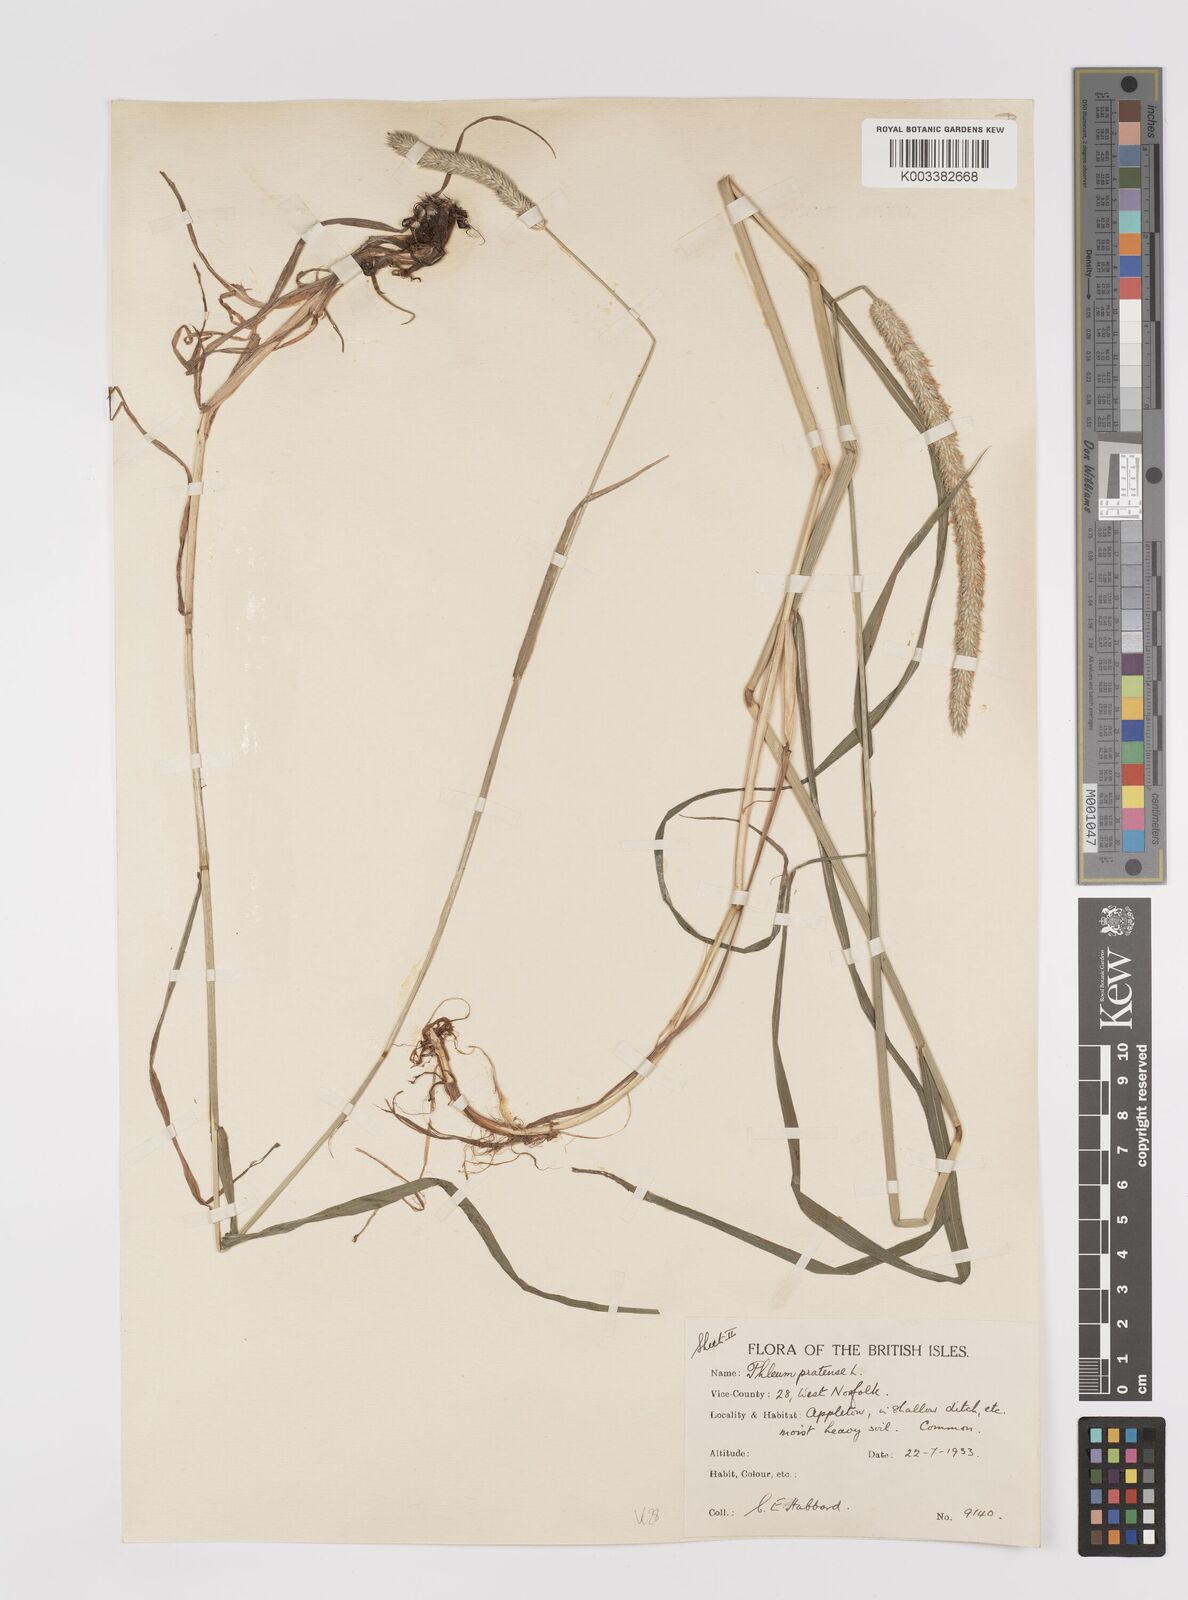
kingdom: Plantae
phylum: Tracheophyta
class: Liliopsida
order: Poales
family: Poaceae
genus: Phleum
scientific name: Phleum pratense
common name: Timothy grass
